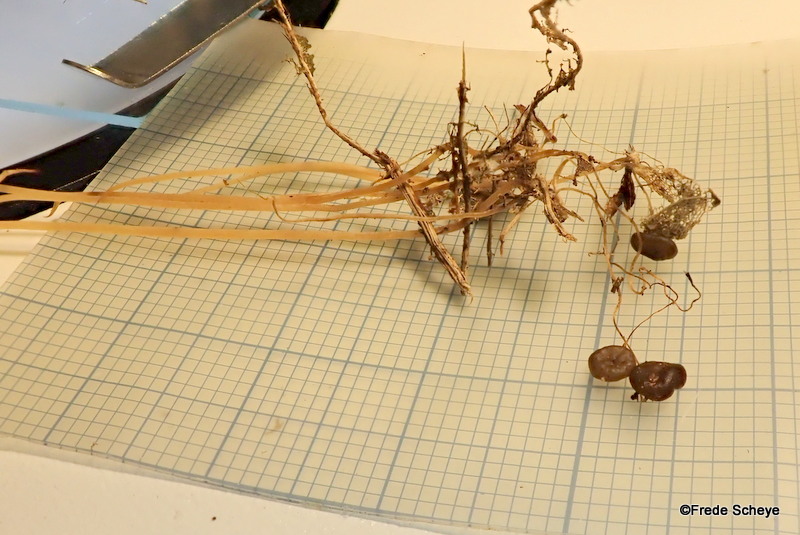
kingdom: Fungi
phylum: Basidiomycota
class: Agaricomycetes
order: Agaricales
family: Typhulaceae
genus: Macrotyphula
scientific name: Macrotyphula phacorrhiza
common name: lang rørkølle
